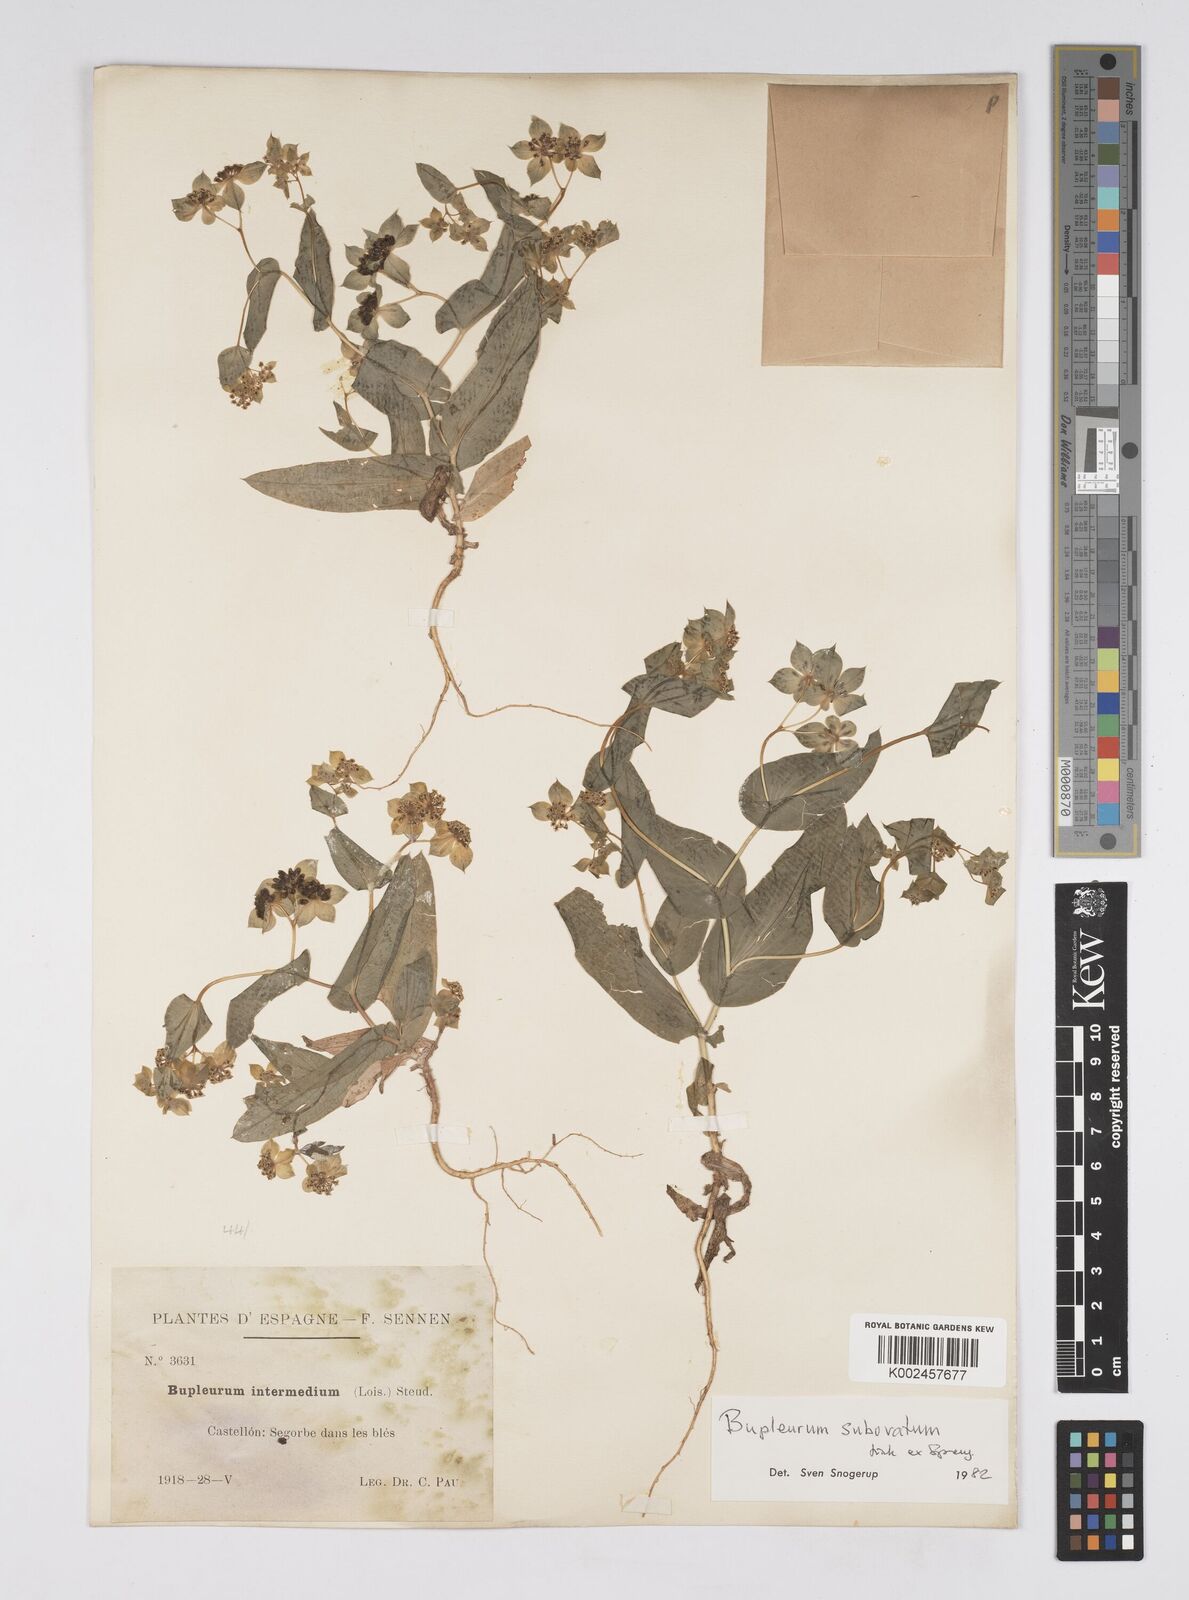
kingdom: Plantae
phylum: Tracheophyta
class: Magnoliopsida
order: Apiales
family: Apiaceae
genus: Bupleurum
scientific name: Bupleurum lancifolium
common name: False thorow-wax
